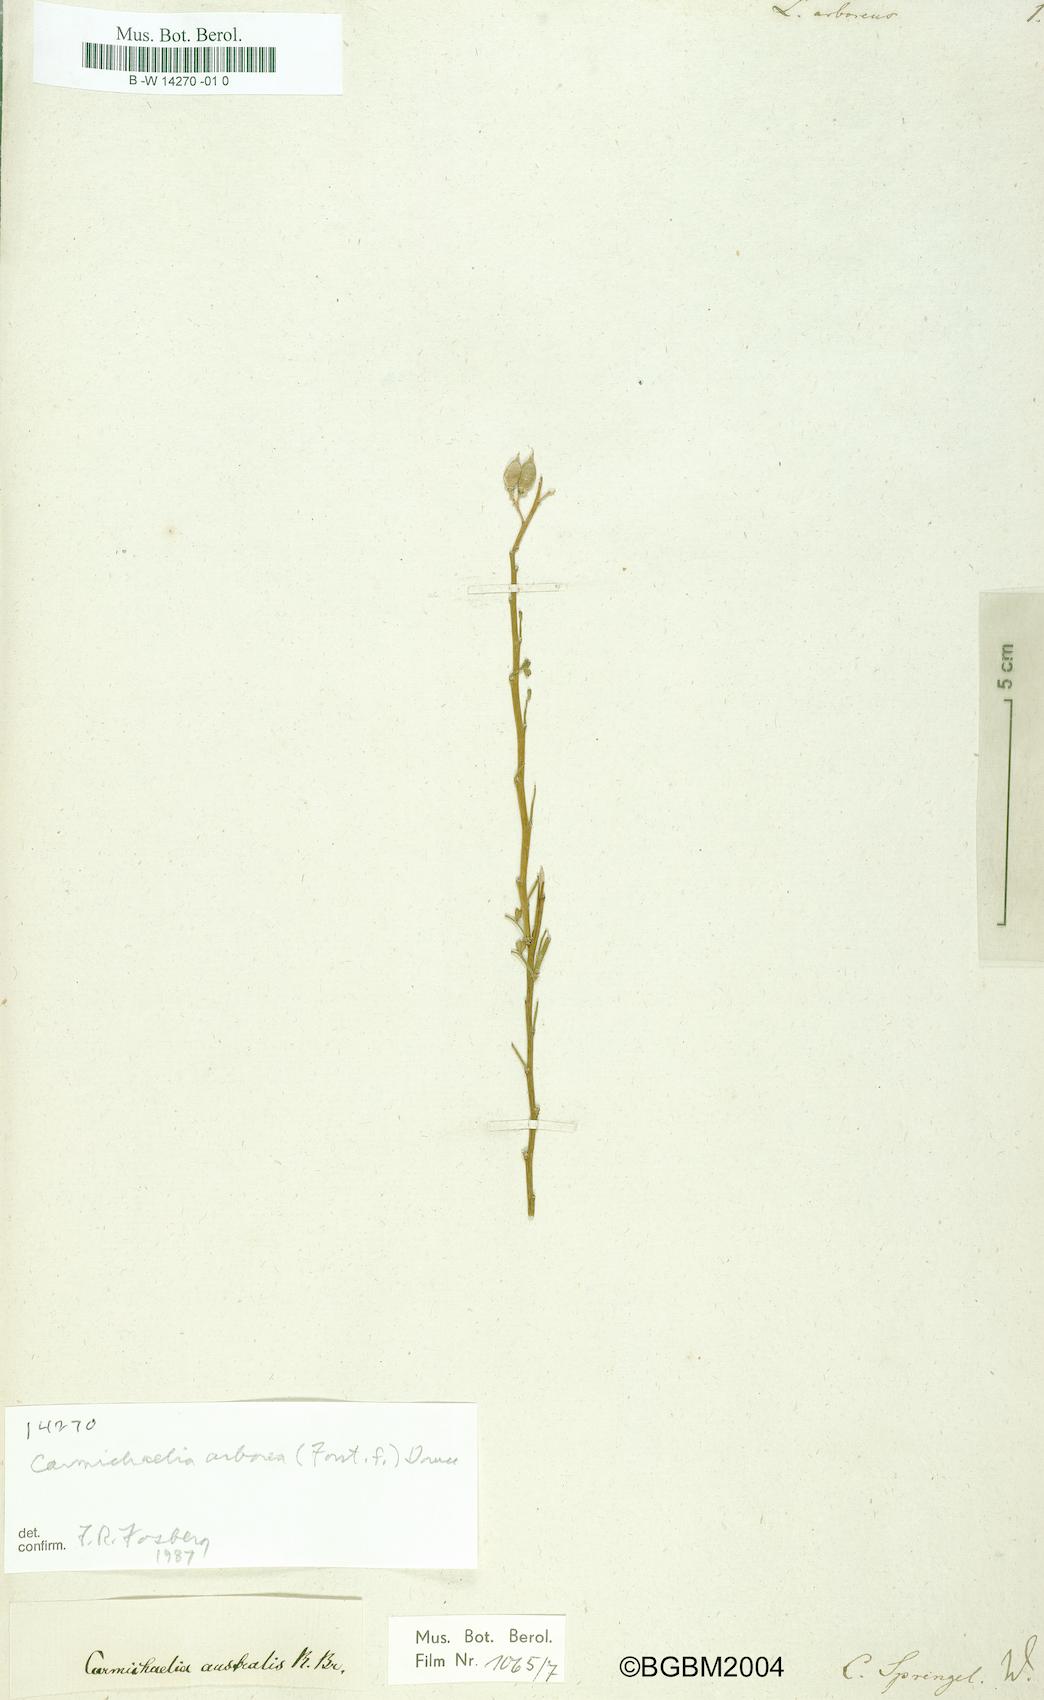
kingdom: Plantae
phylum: Tracheophyta
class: Magnoliopsida
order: Fabales
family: Fabaceae
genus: Carmichaelia
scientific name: Carmichaelia arborea
